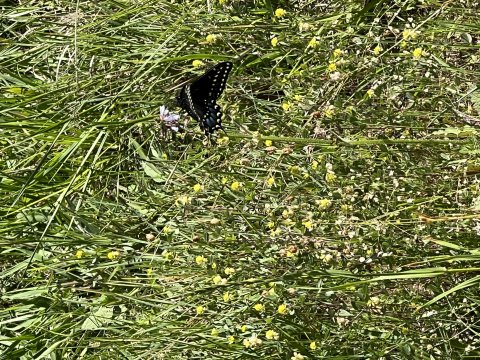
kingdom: Animalia
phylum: Arthropoda
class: Insecta
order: Lepidoptera
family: Papilionidae
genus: Papilio
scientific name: Papilio polyxenes
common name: Black Swallowtail
